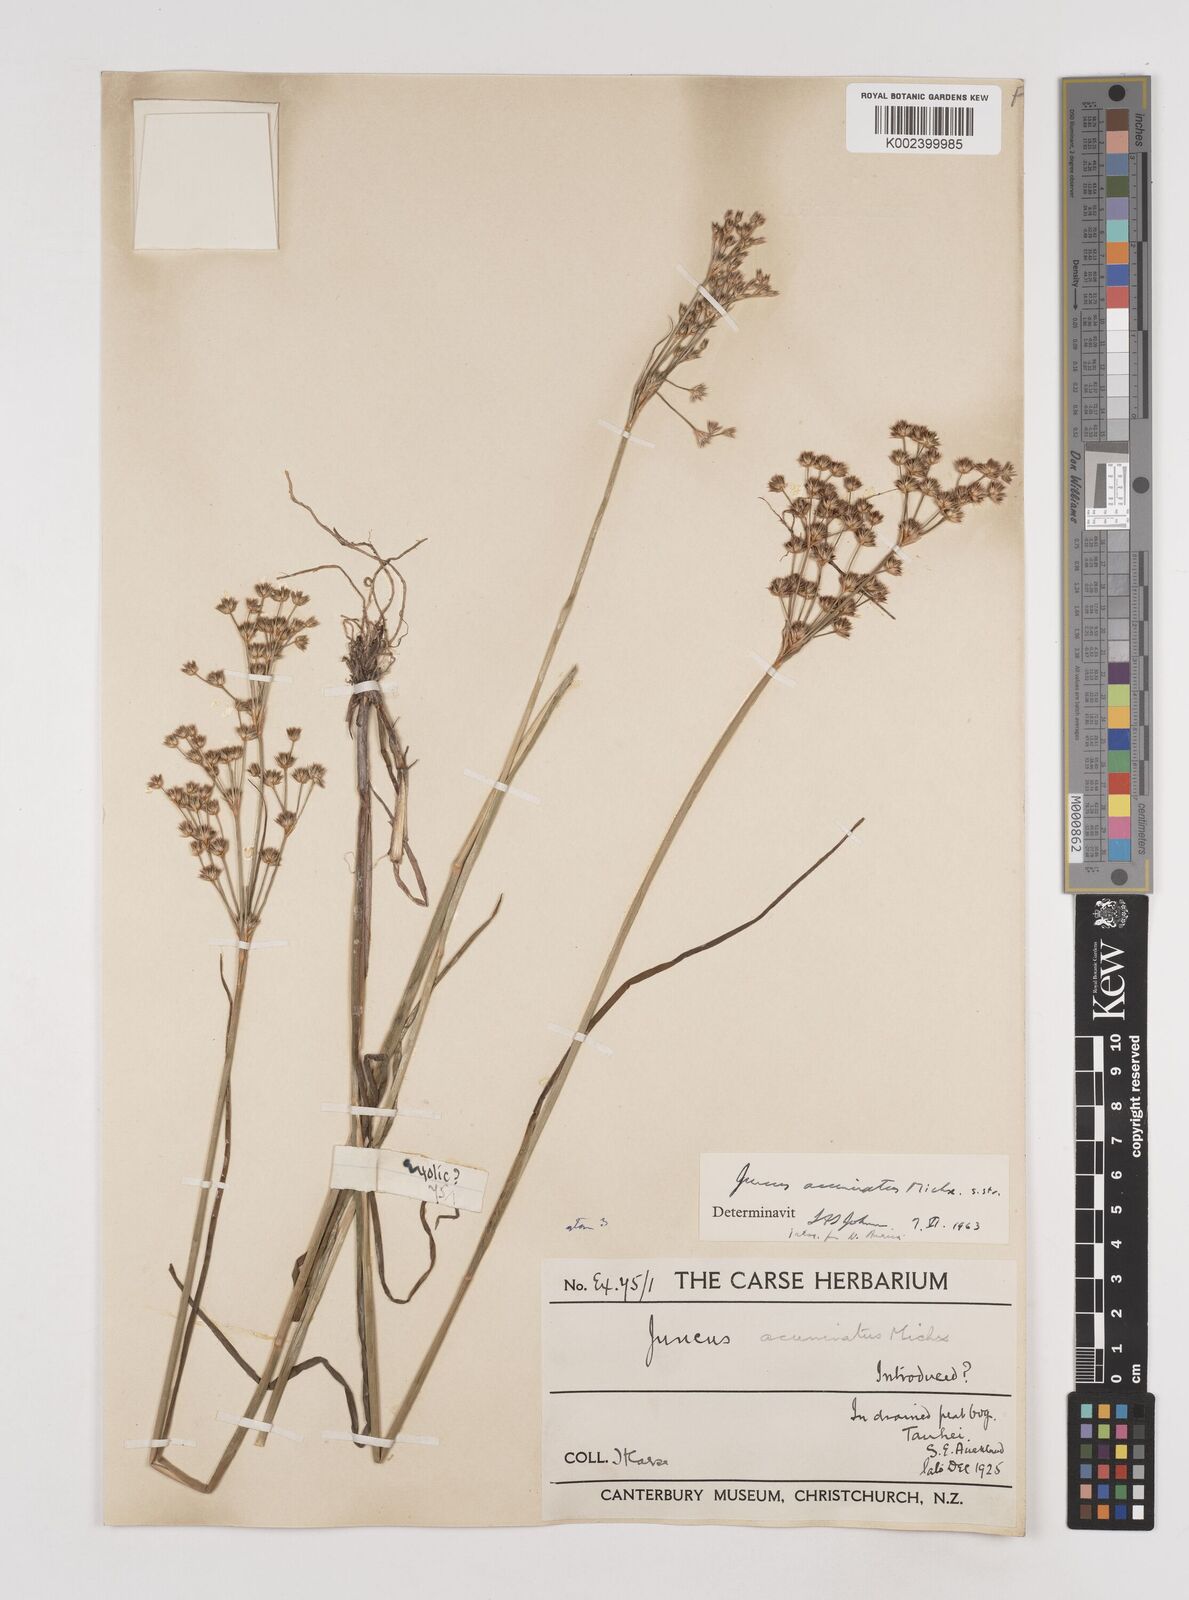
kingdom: Plantae
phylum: Tracheophyta
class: Liliopsida
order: Poales
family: Juncaceae
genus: Juncus
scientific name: Juncus acuminatus
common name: Knotty-leaved rush
